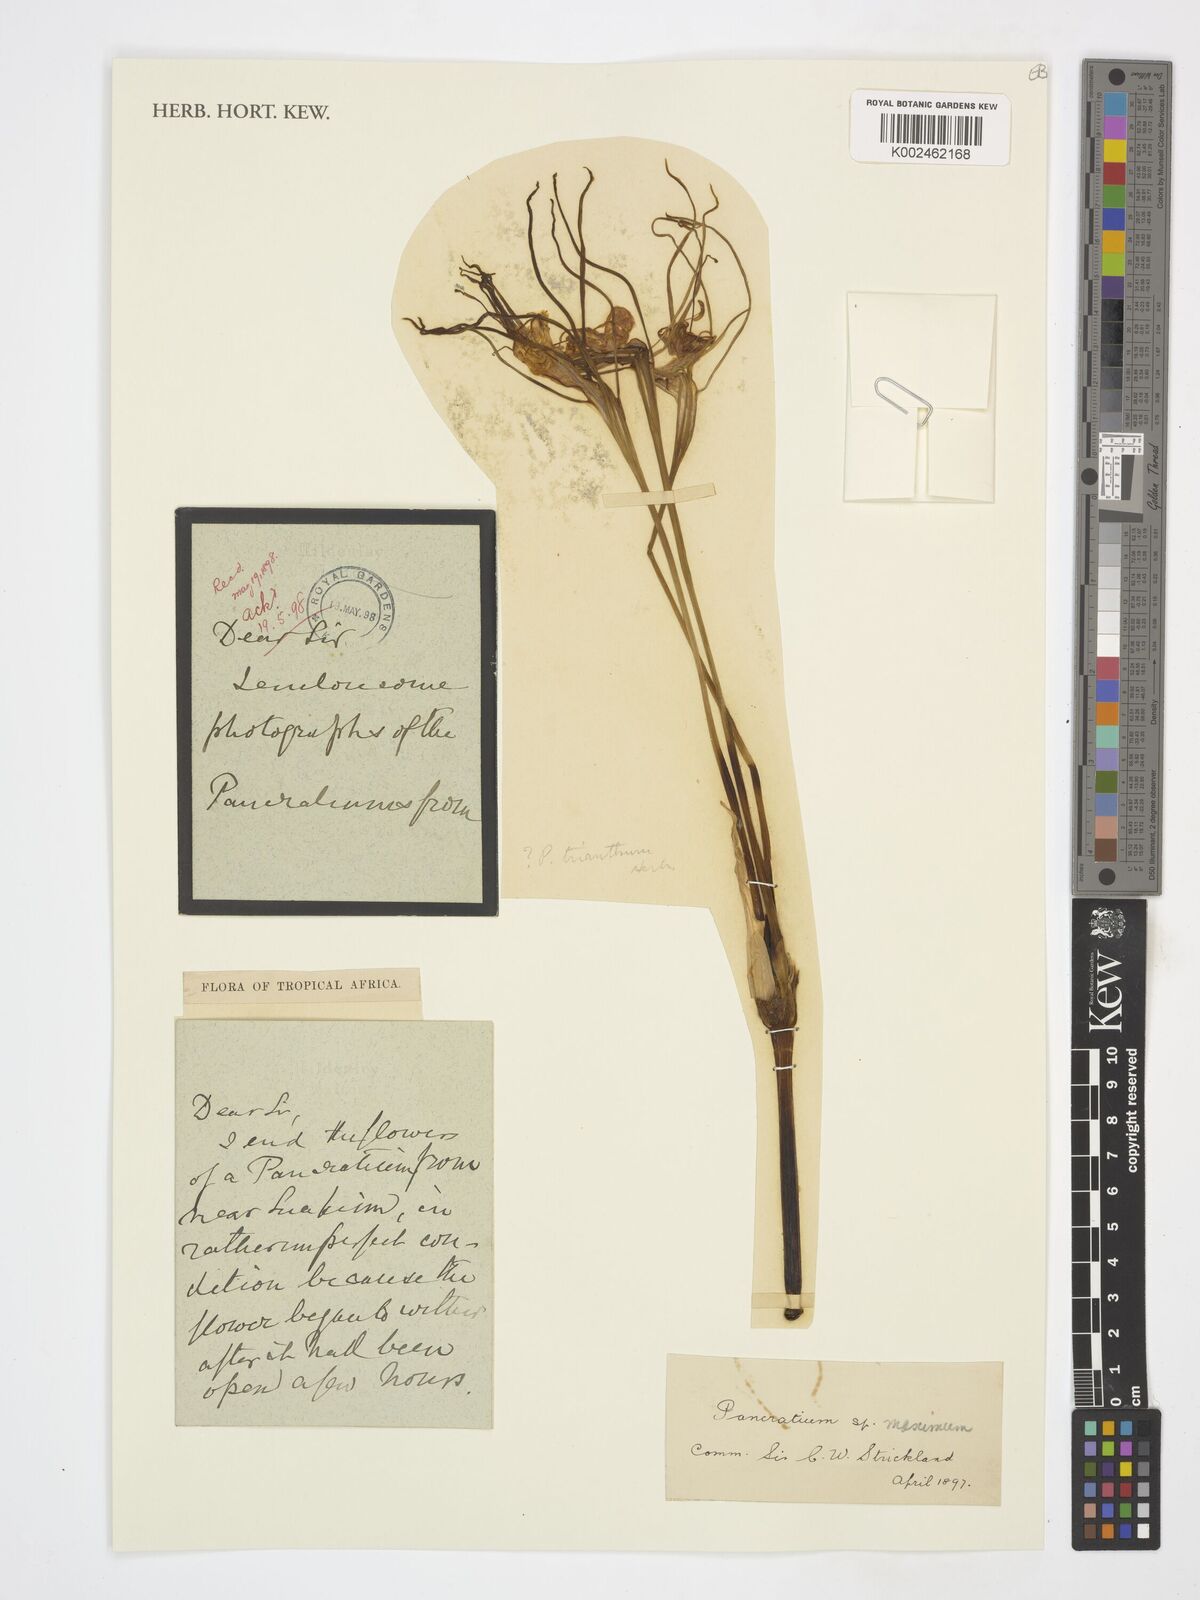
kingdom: Plantae
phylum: Tracheophyta
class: Liliopsida
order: Asparagales
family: Amaryllidaceae
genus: Pancratium
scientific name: Pancratium
